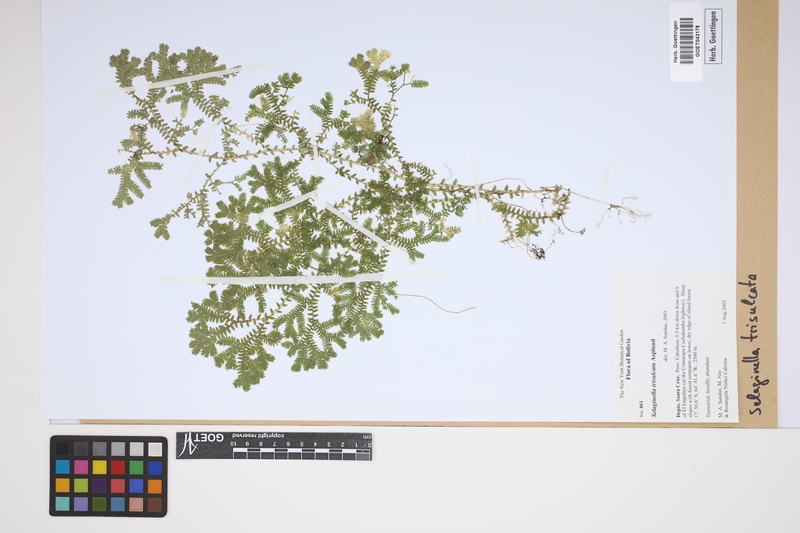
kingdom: Plantae
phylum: Tracheophyta
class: Lycopodiopsida
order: Selaginellales
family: Selaginellaceae
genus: Selaginella
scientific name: Selaginella trisulcata
